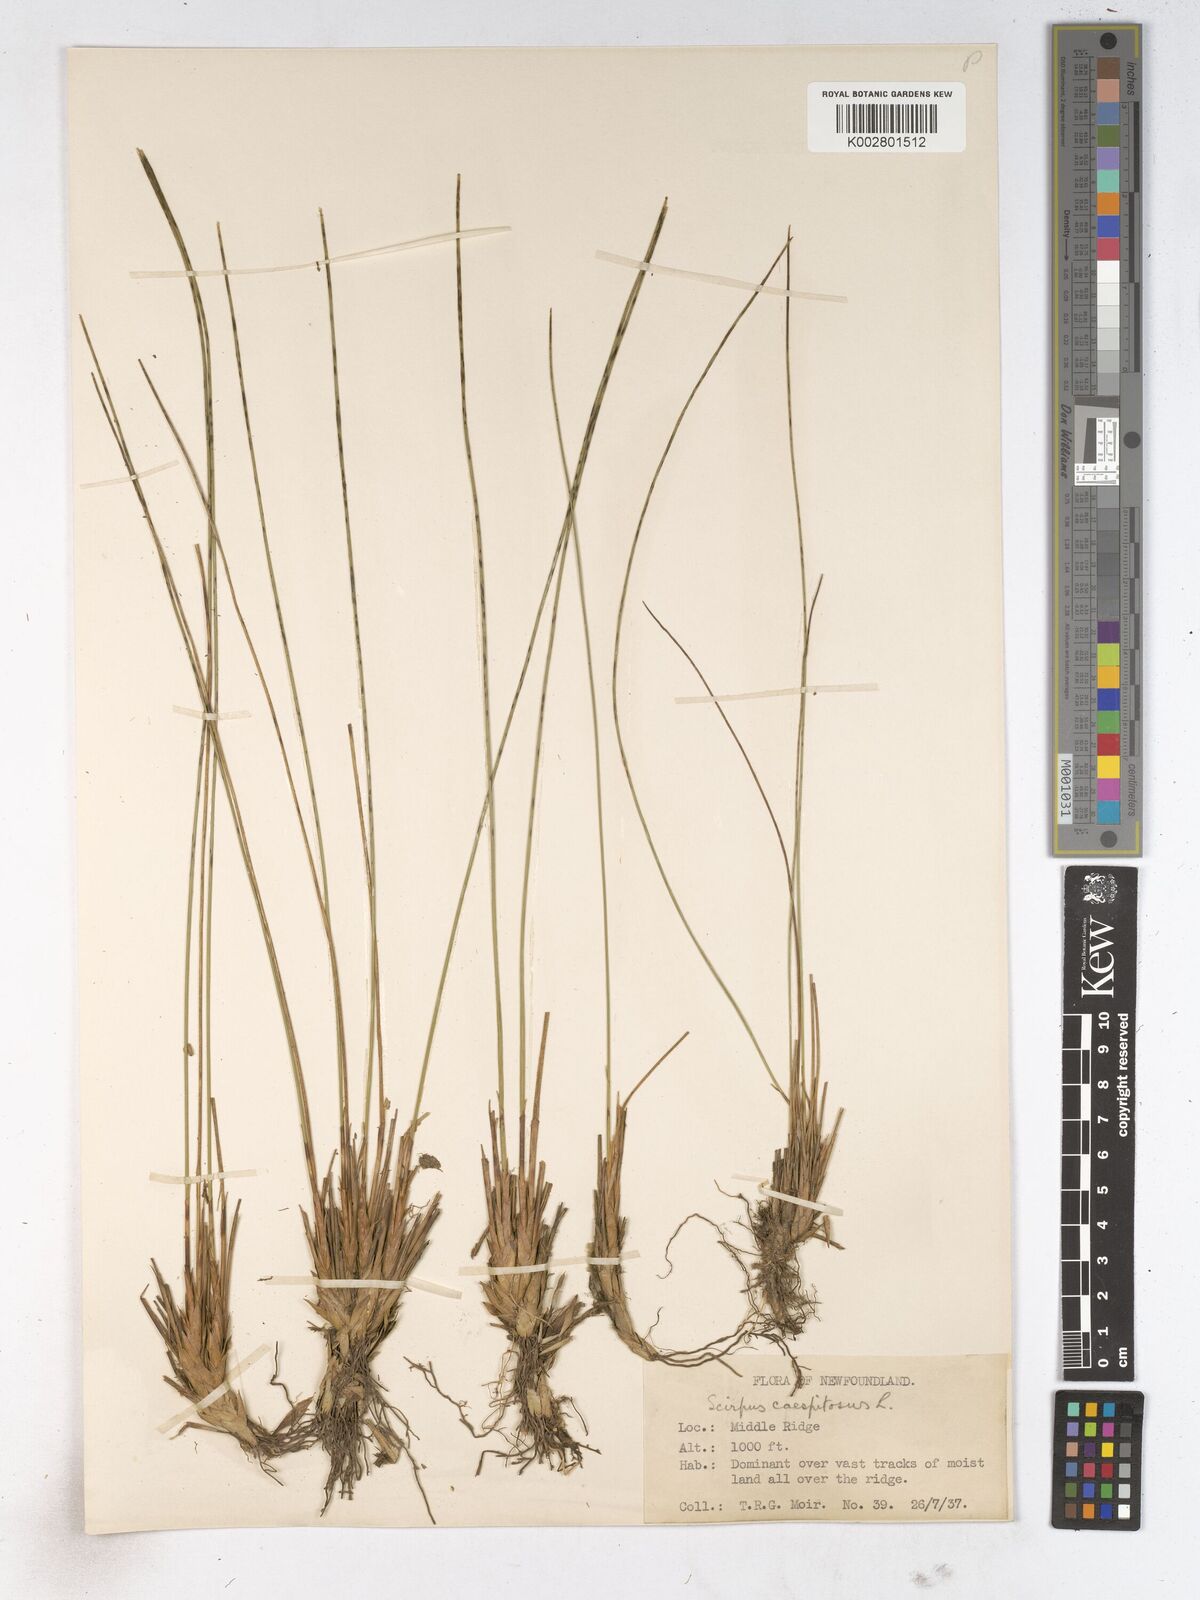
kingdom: Plantae
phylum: Tracheophyta
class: Liliopsida
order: Poales
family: Cyperaceae
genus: Trichophorum
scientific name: Trichophorum cespitosum
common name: Cespitose bulrush
